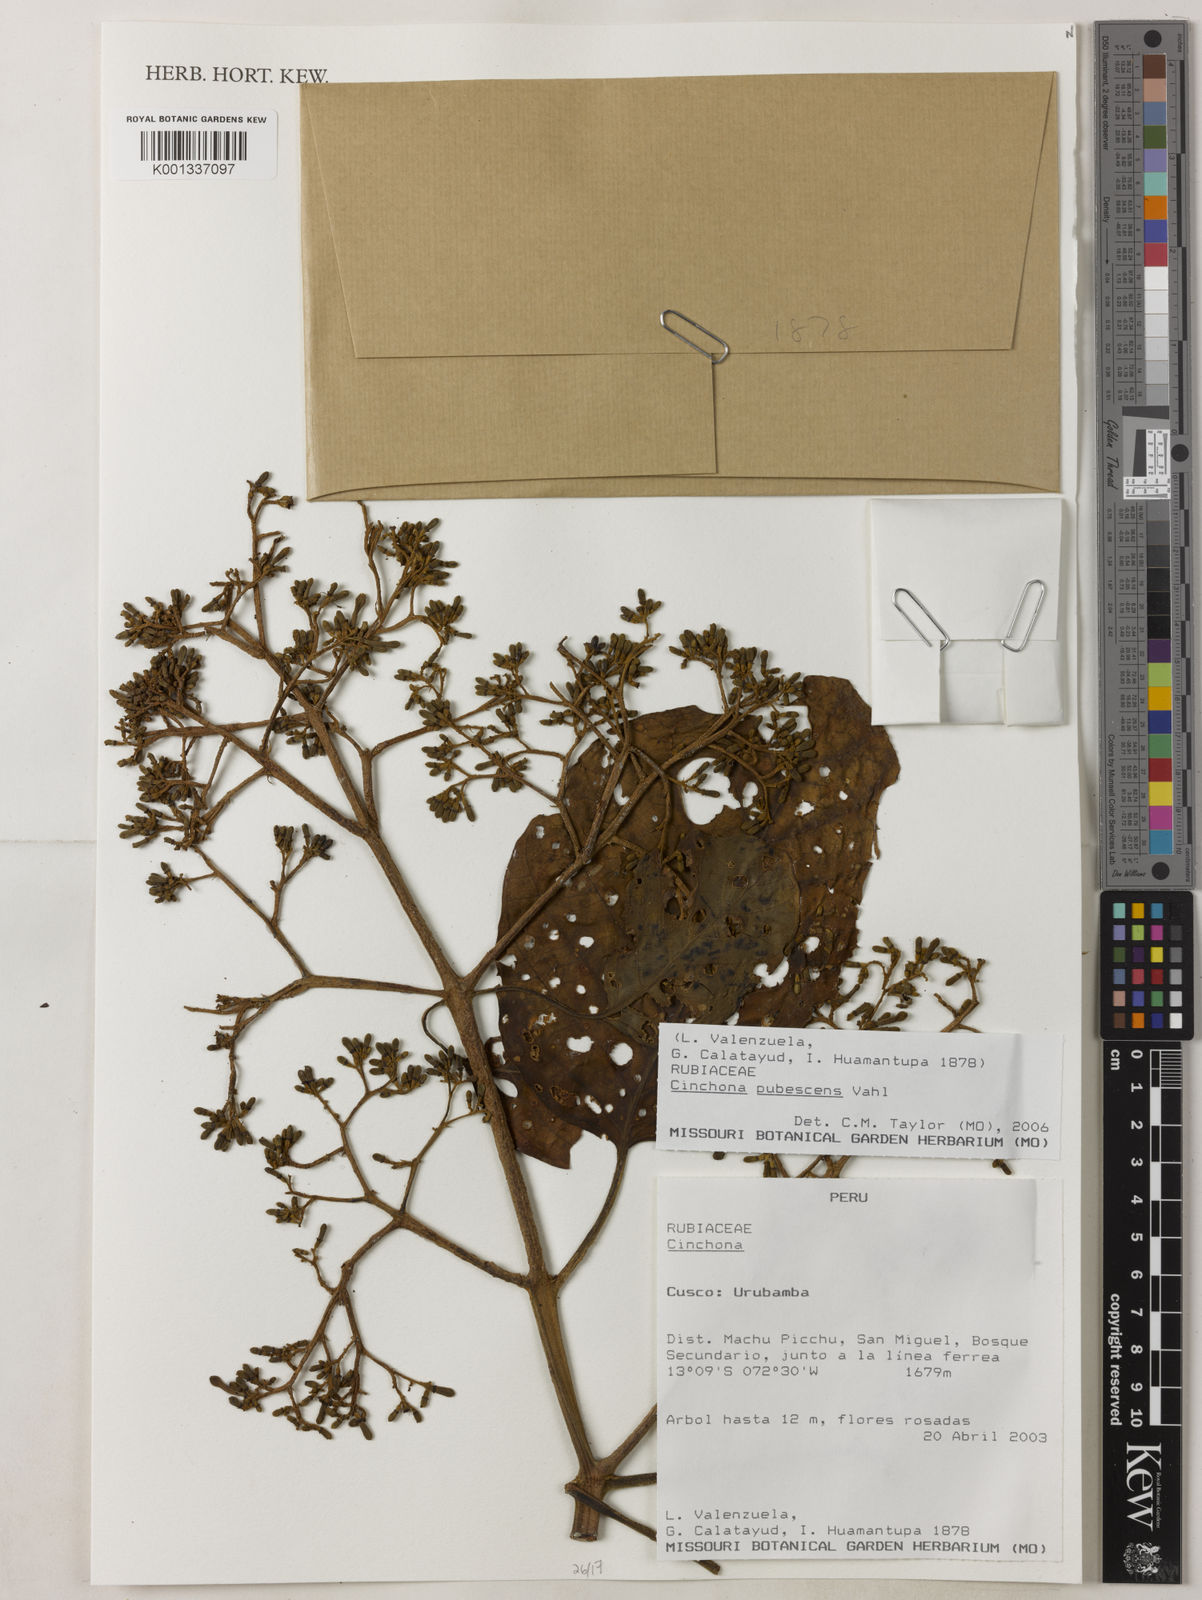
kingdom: Plantae
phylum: Tracheophyta
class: Magnoliopsida
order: Gentianales
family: Rubiaceae
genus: Cinchona
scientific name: Cinchona pubescens
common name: Quinine
